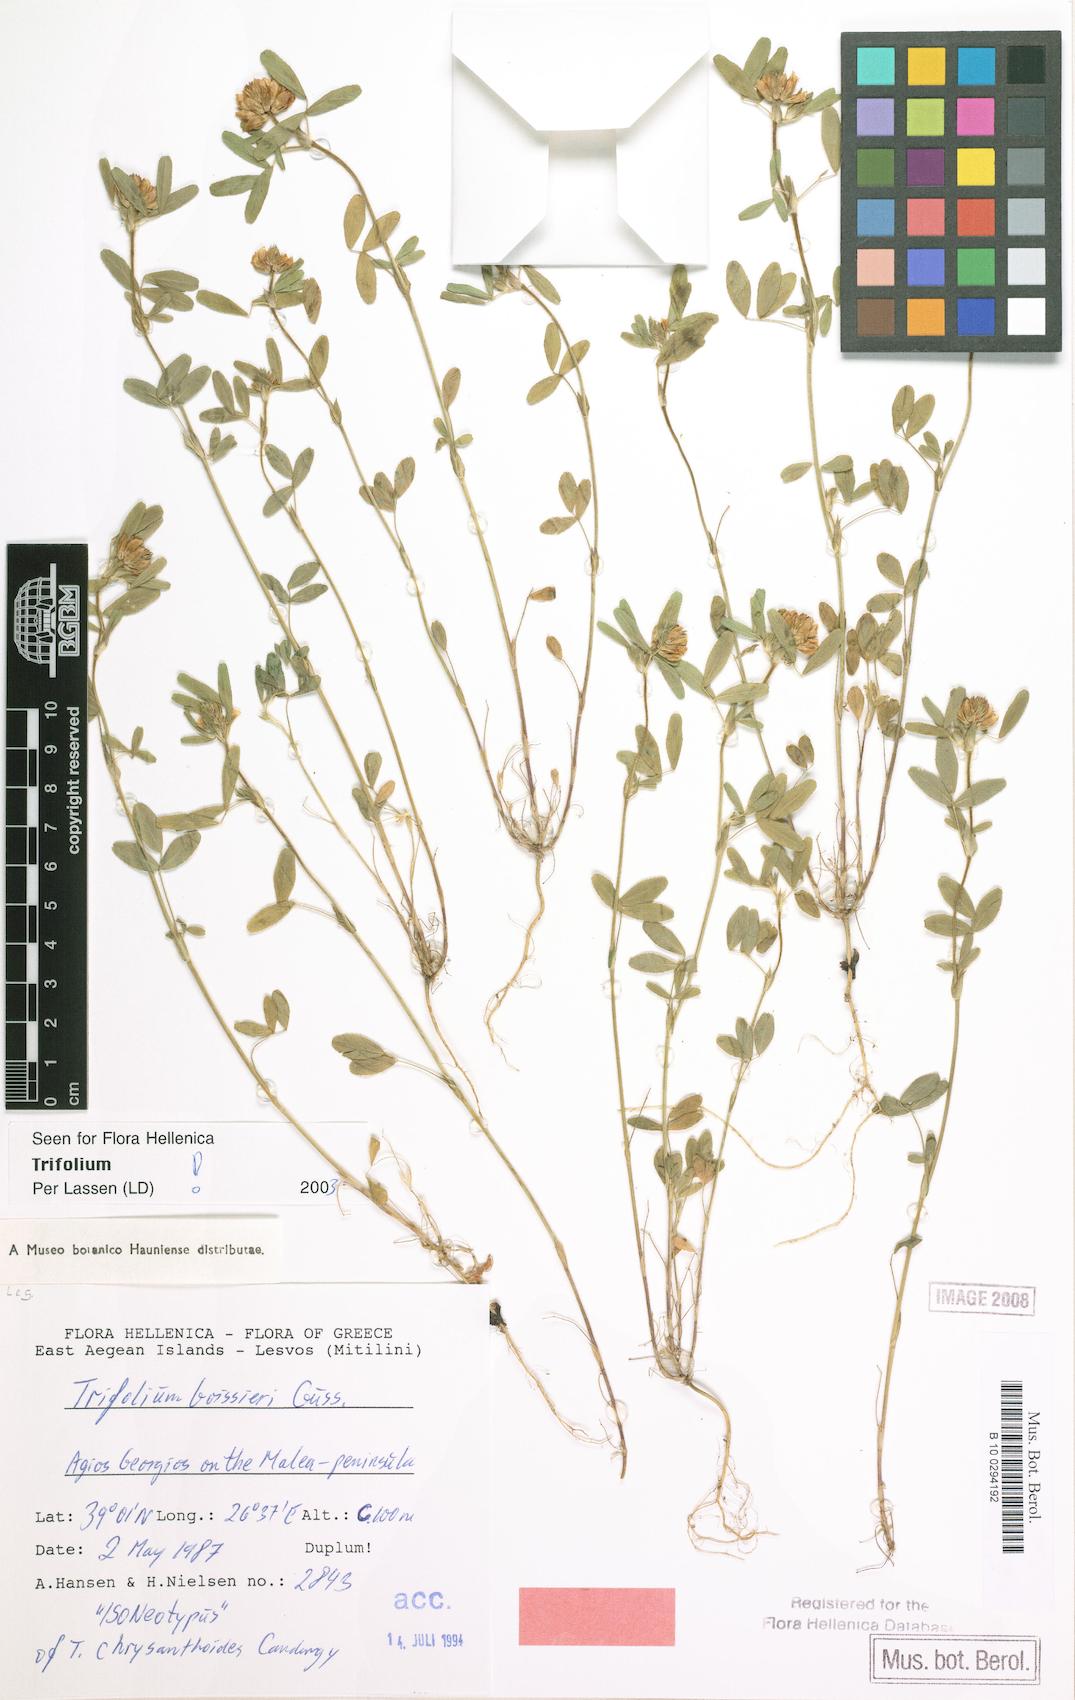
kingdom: Plantae
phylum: Tracheophyta
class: Magnoliopsida
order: Fabales
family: Fabaceae
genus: Trifolium
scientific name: Trifolium boissieri
